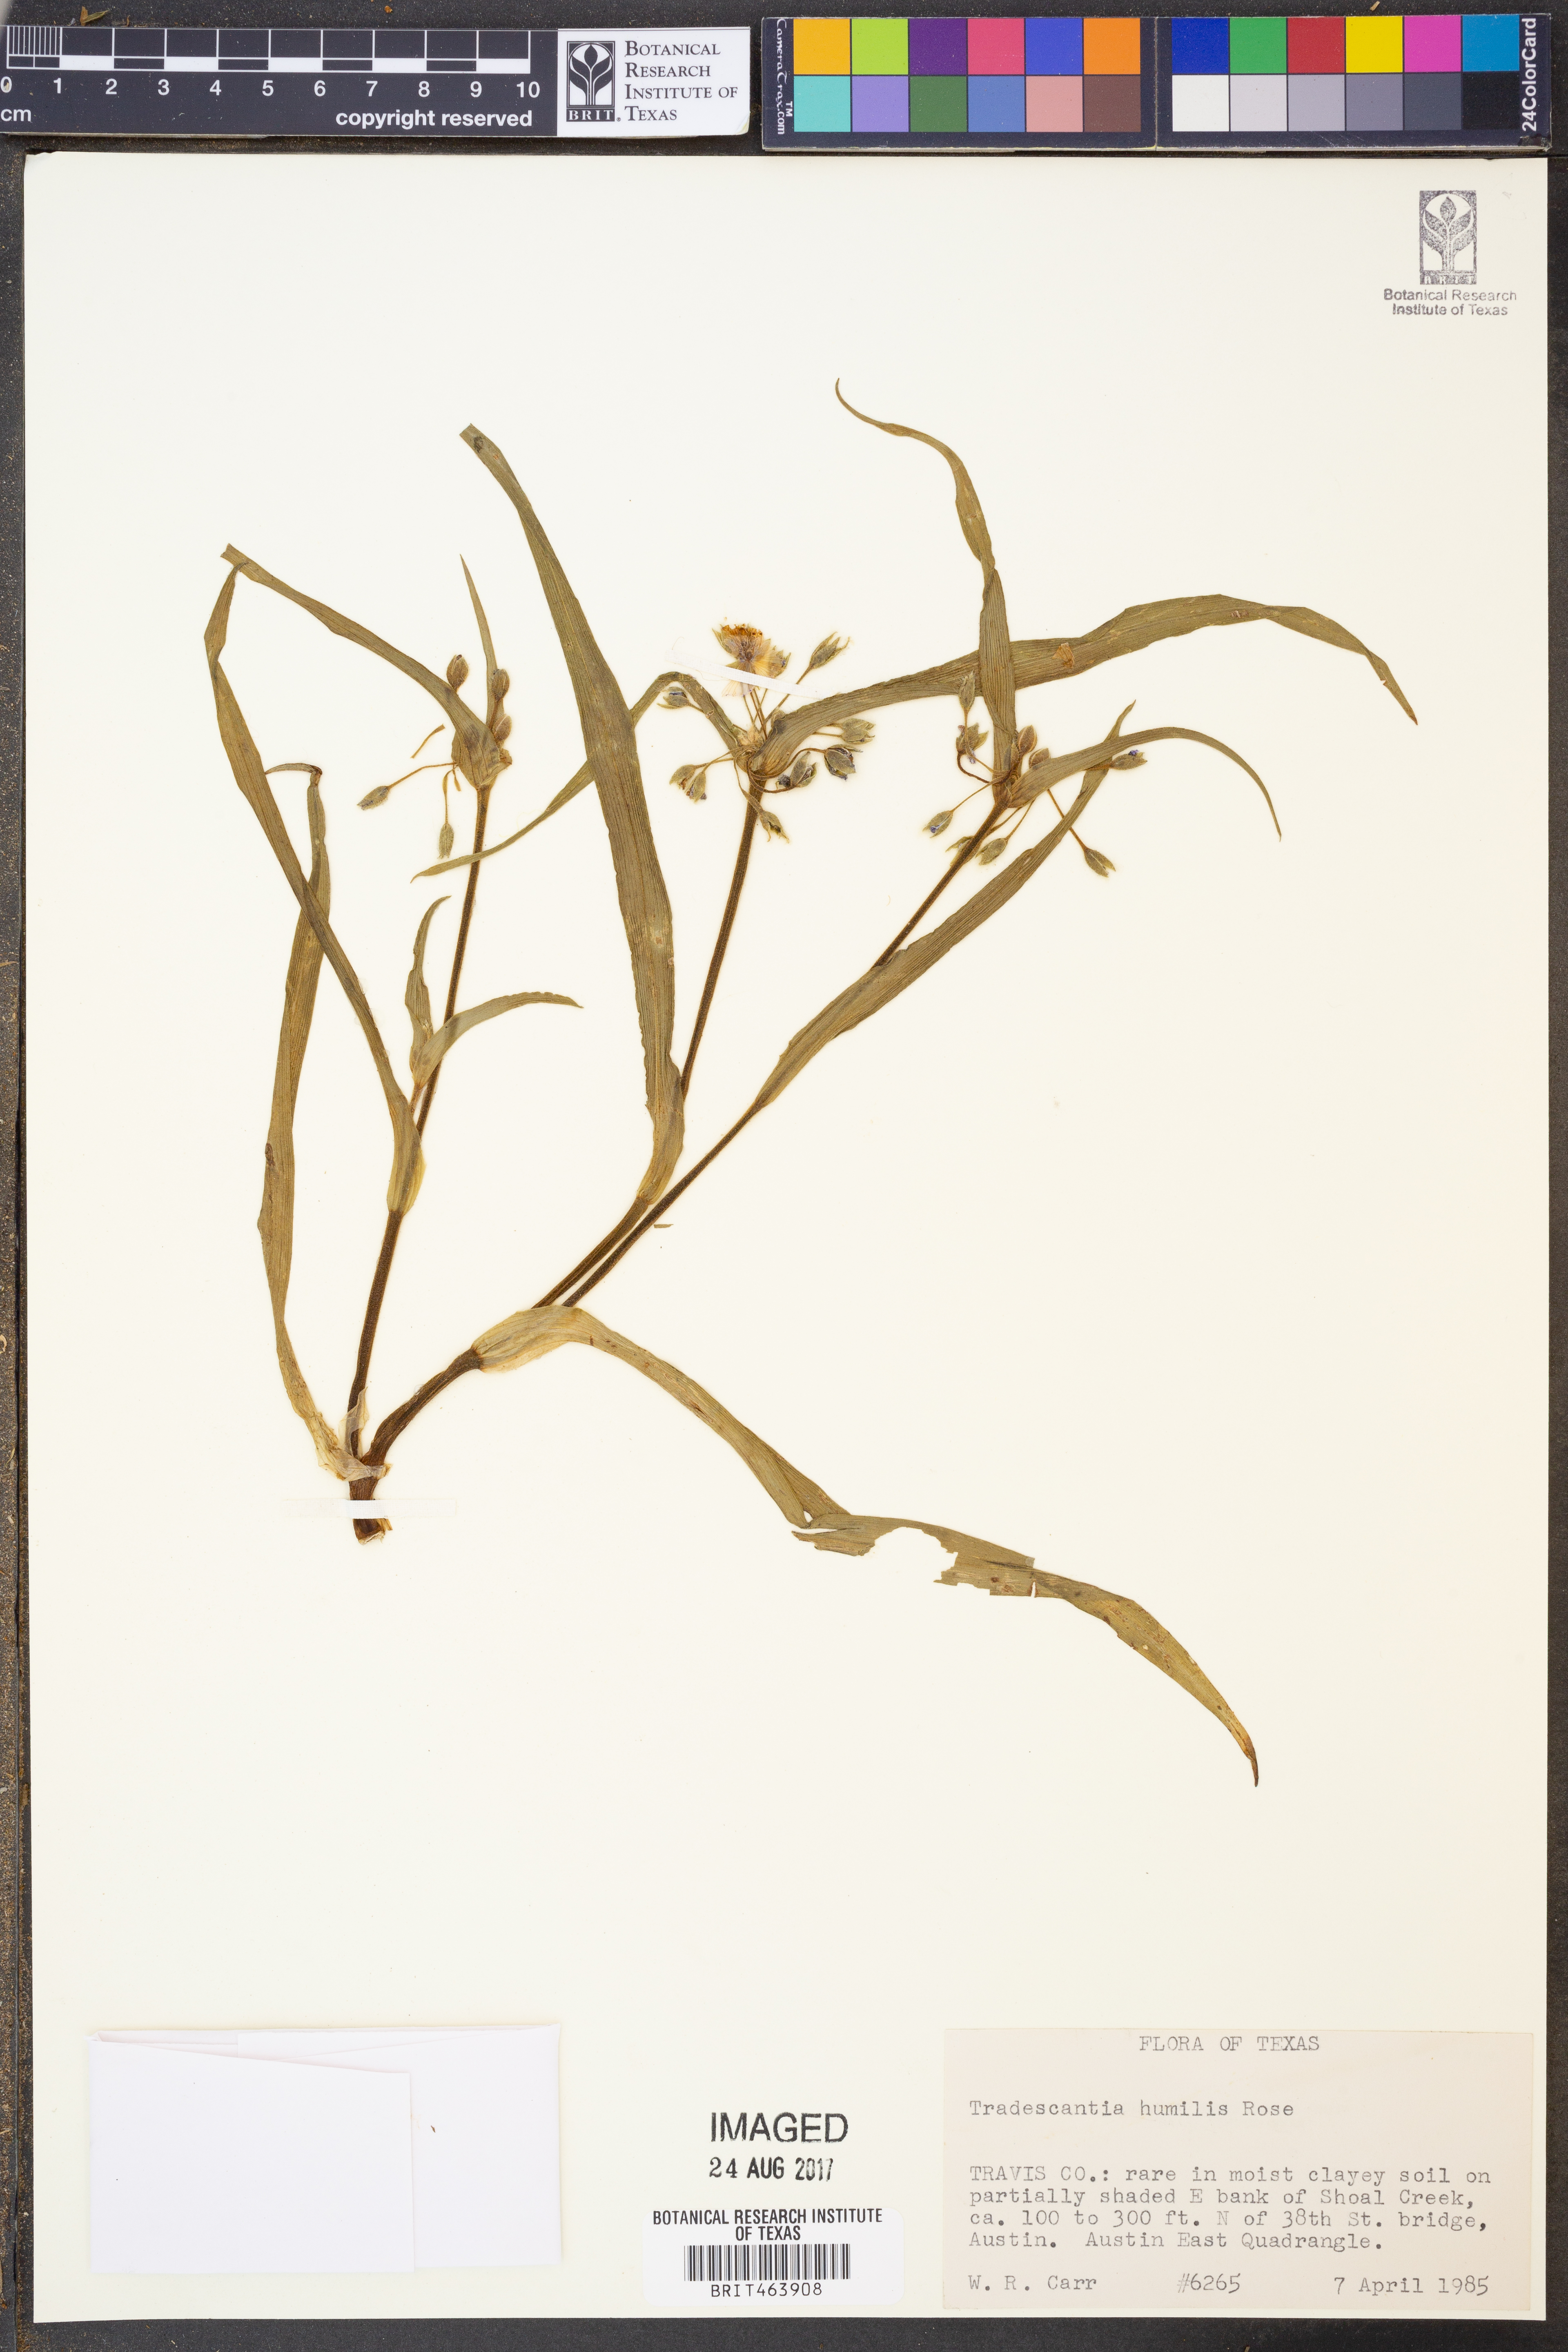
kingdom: Plantae
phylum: Tracheophyta
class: Liliopsida
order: Commelinales
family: Commelinaceae
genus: Tradescantia
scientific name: Tradescantia humilis
